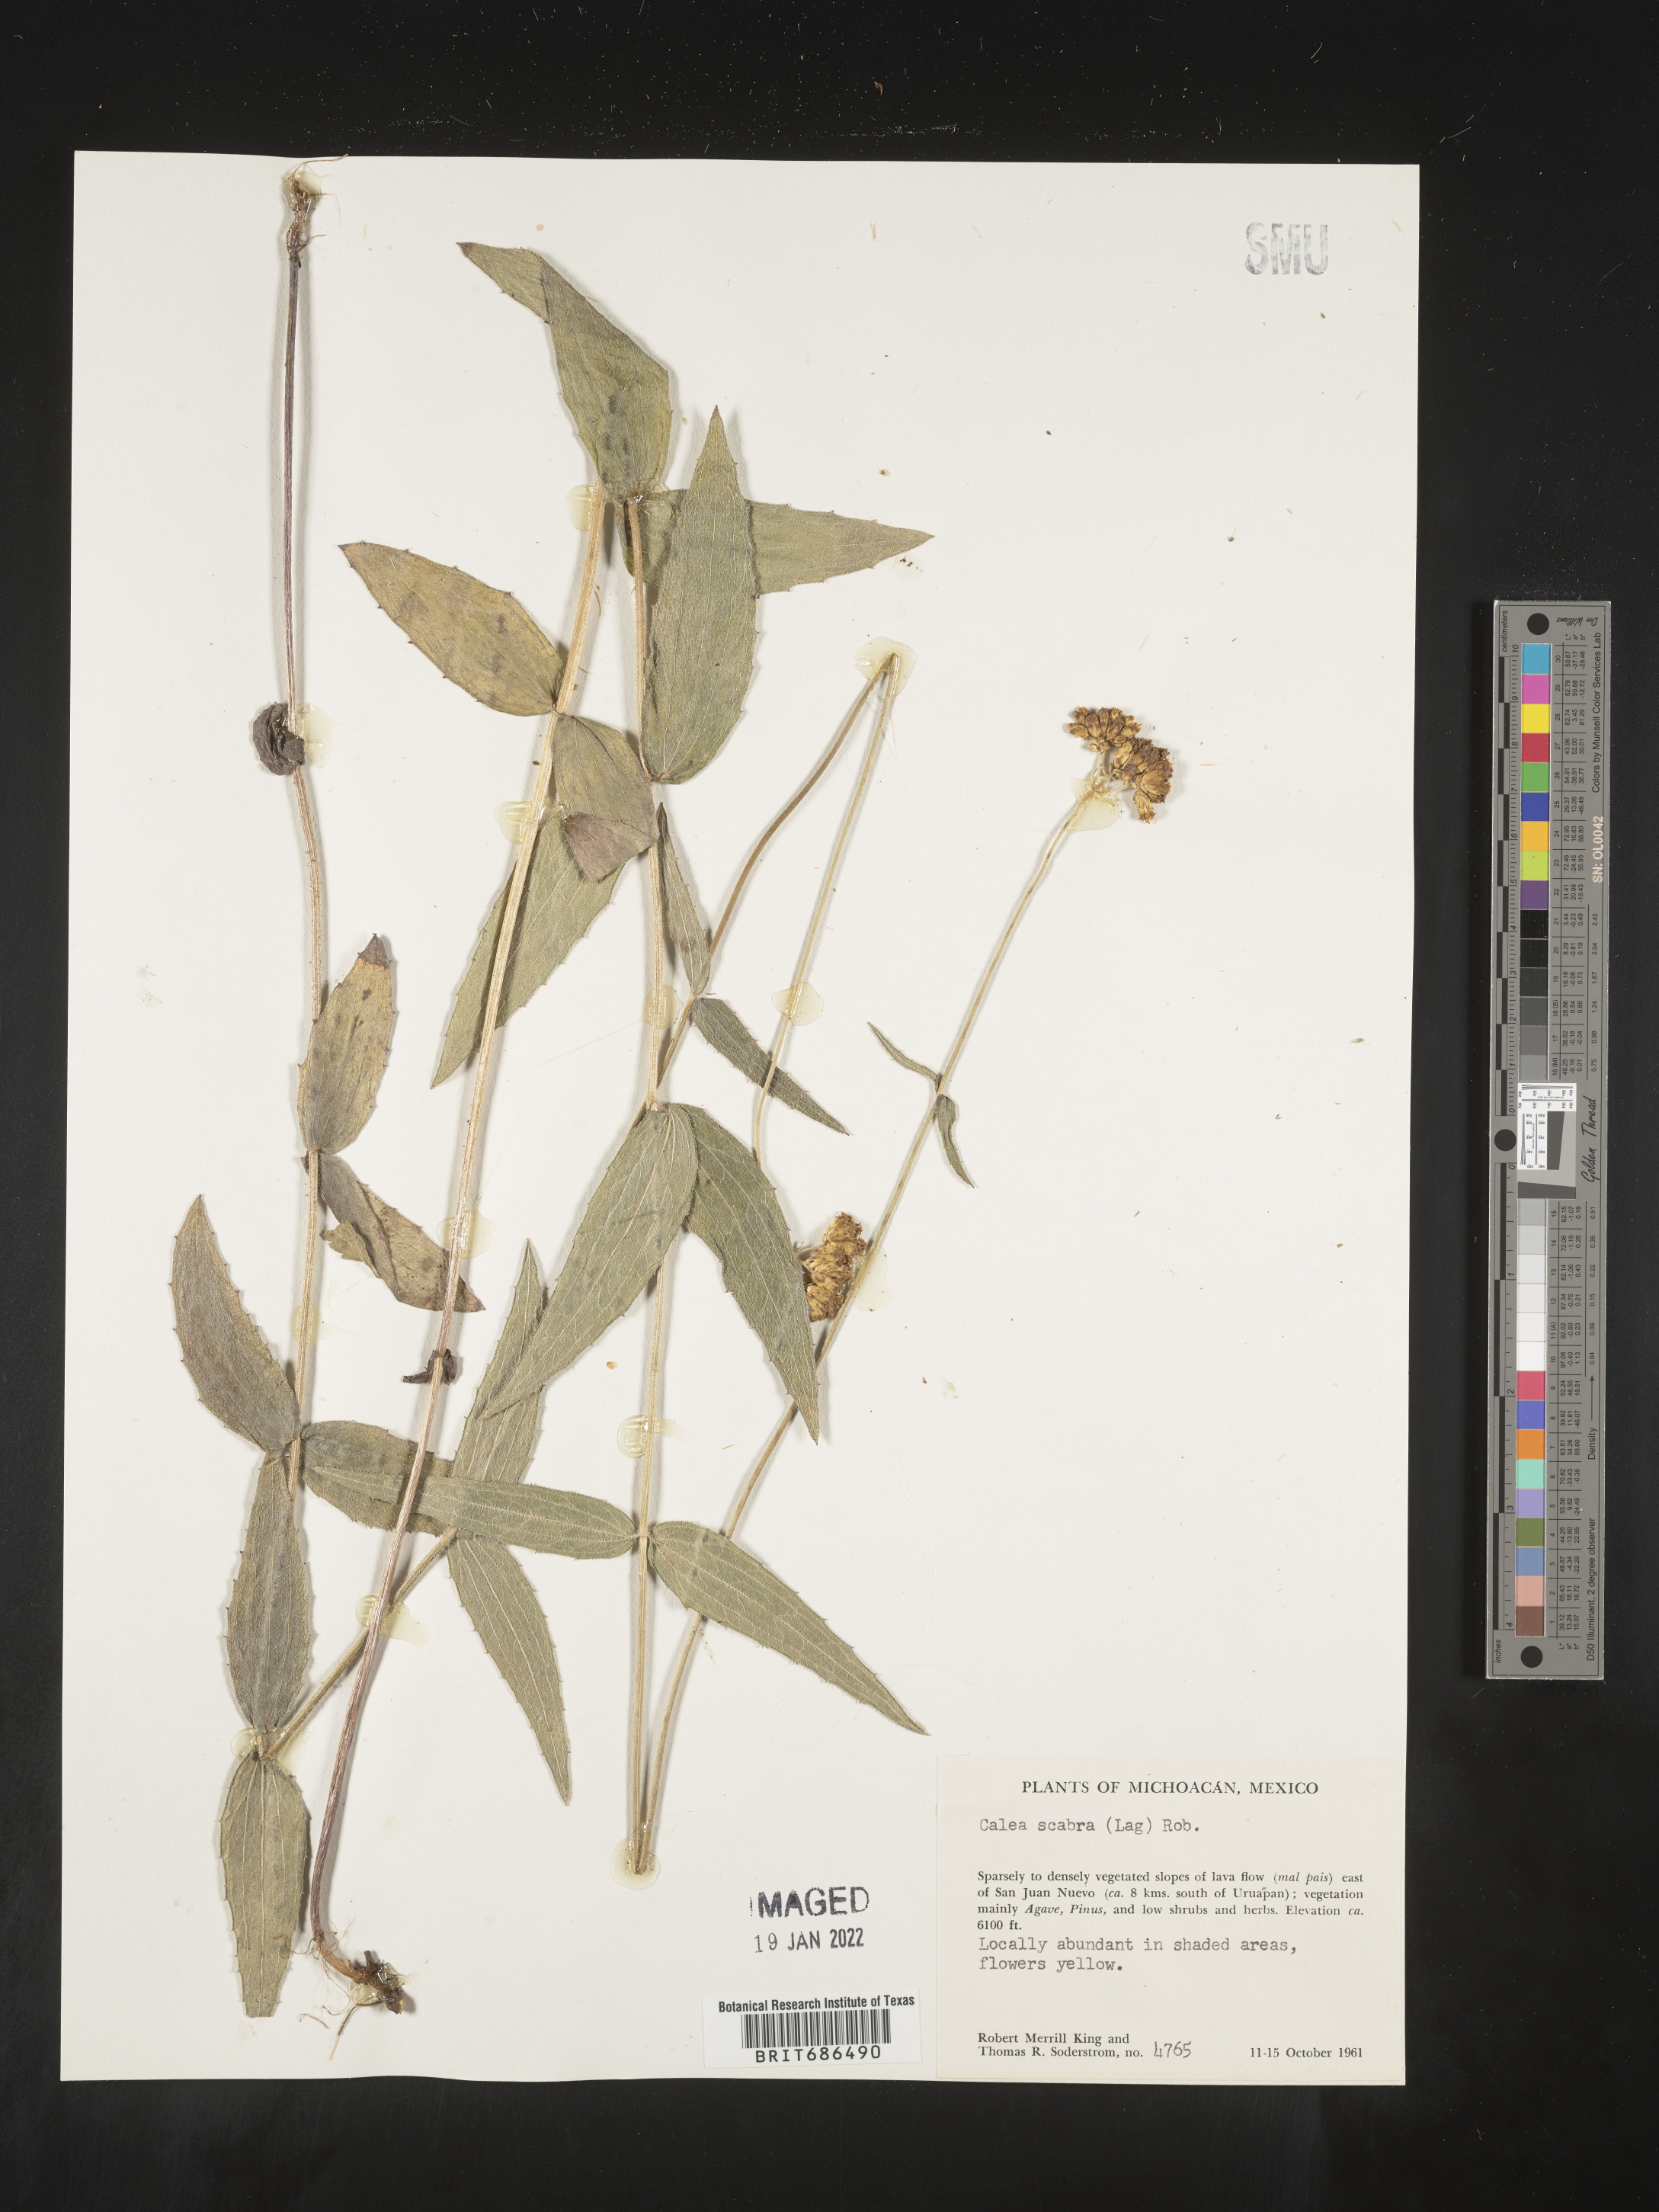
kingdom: Plantae
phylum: Tracheophyta
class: Magnoliopsida
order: Asterales
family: Asteraceae
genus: Alloispermum
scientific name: Alloispermum scabrum
